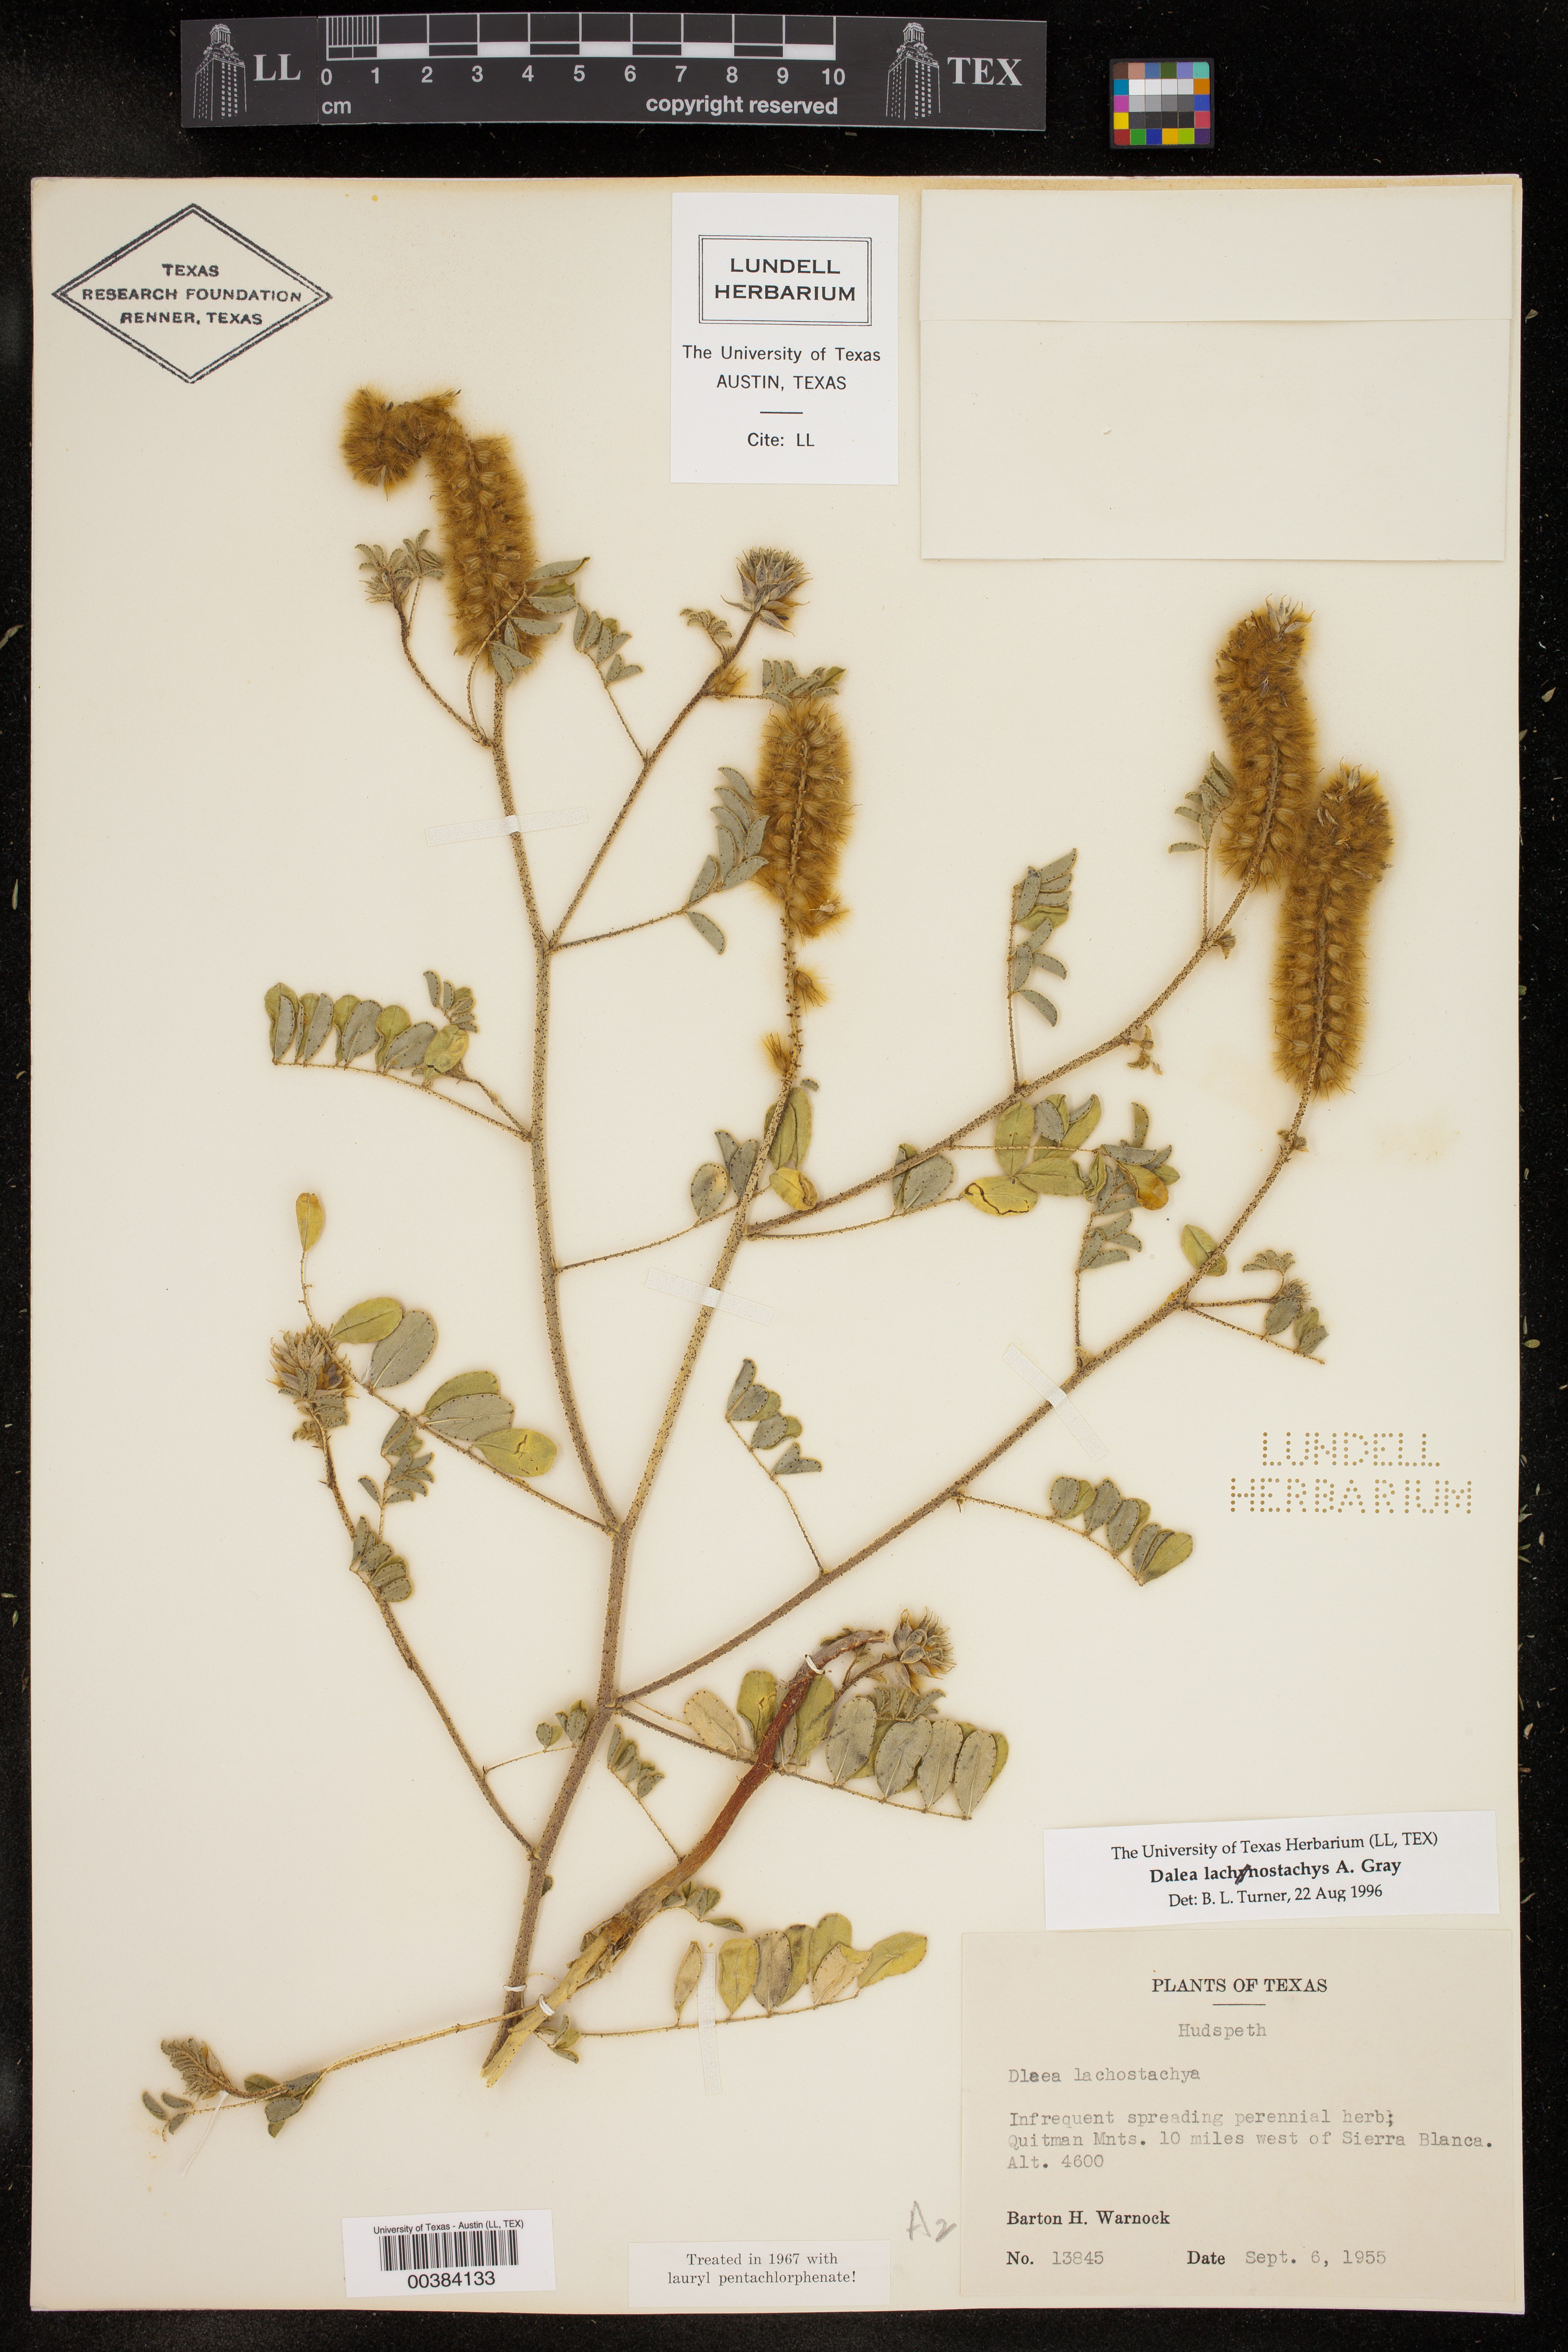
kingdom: Plantae
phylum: Tracheophyta
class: Magnoliopsida
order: Fabales
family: Fabaceae
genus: Dalea
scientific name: Dalea lachnostachys
